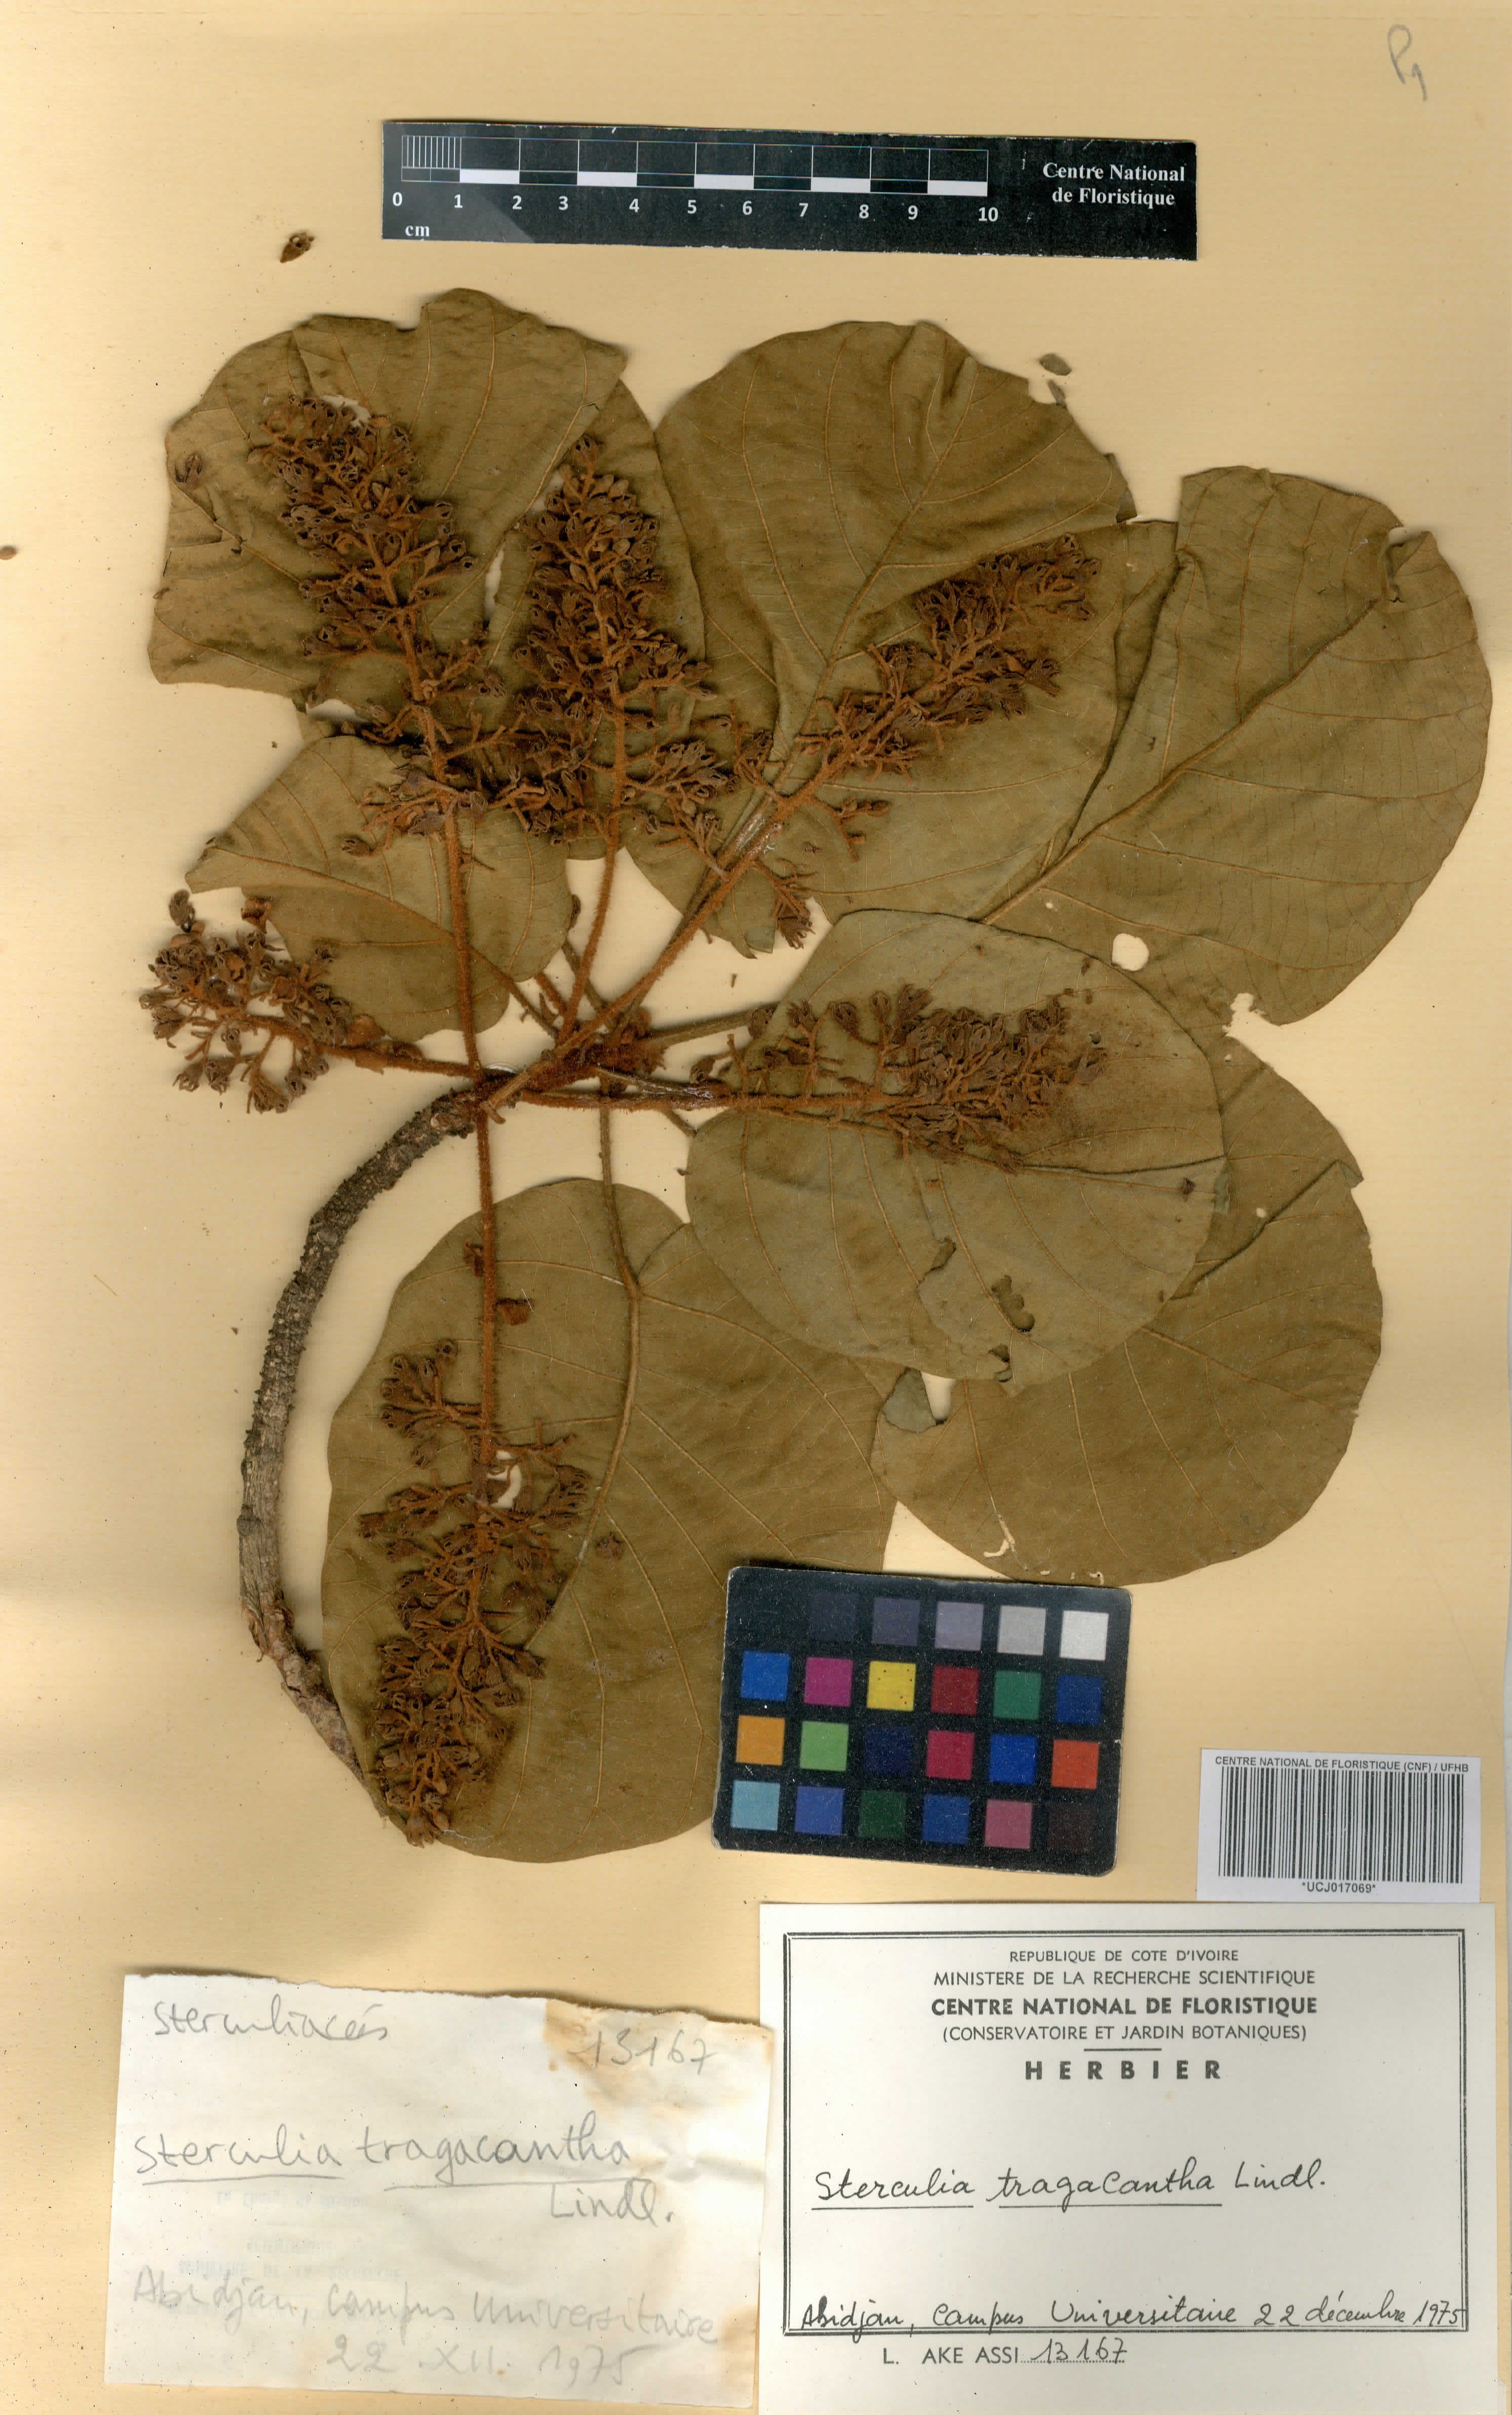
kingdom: Plantae
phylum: Tracheophyta
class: Magnoliopsida
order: Malvales
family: Malvaceae
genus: Sterculia
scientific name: Sterculia tragacantha
